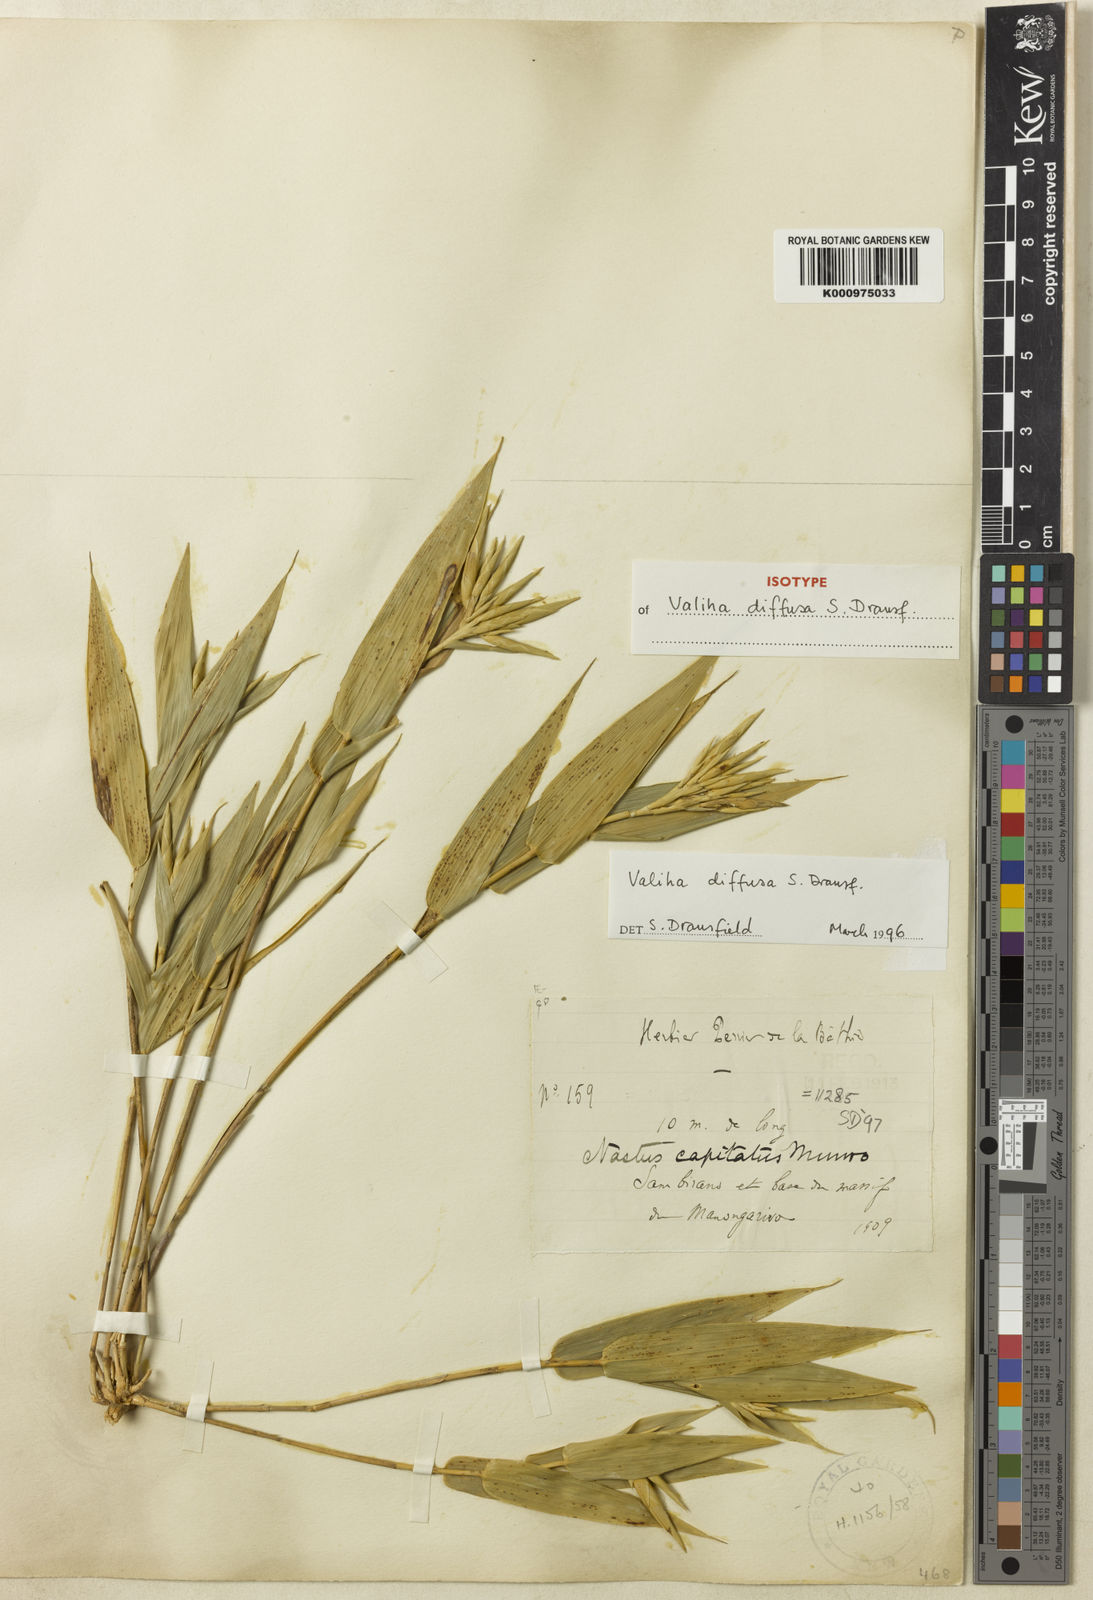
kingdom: Plantae
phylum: Tracheophyta
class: Liliopsida
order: Poales
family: Poaceae
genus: Valiha
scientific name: Valiha diffusa
